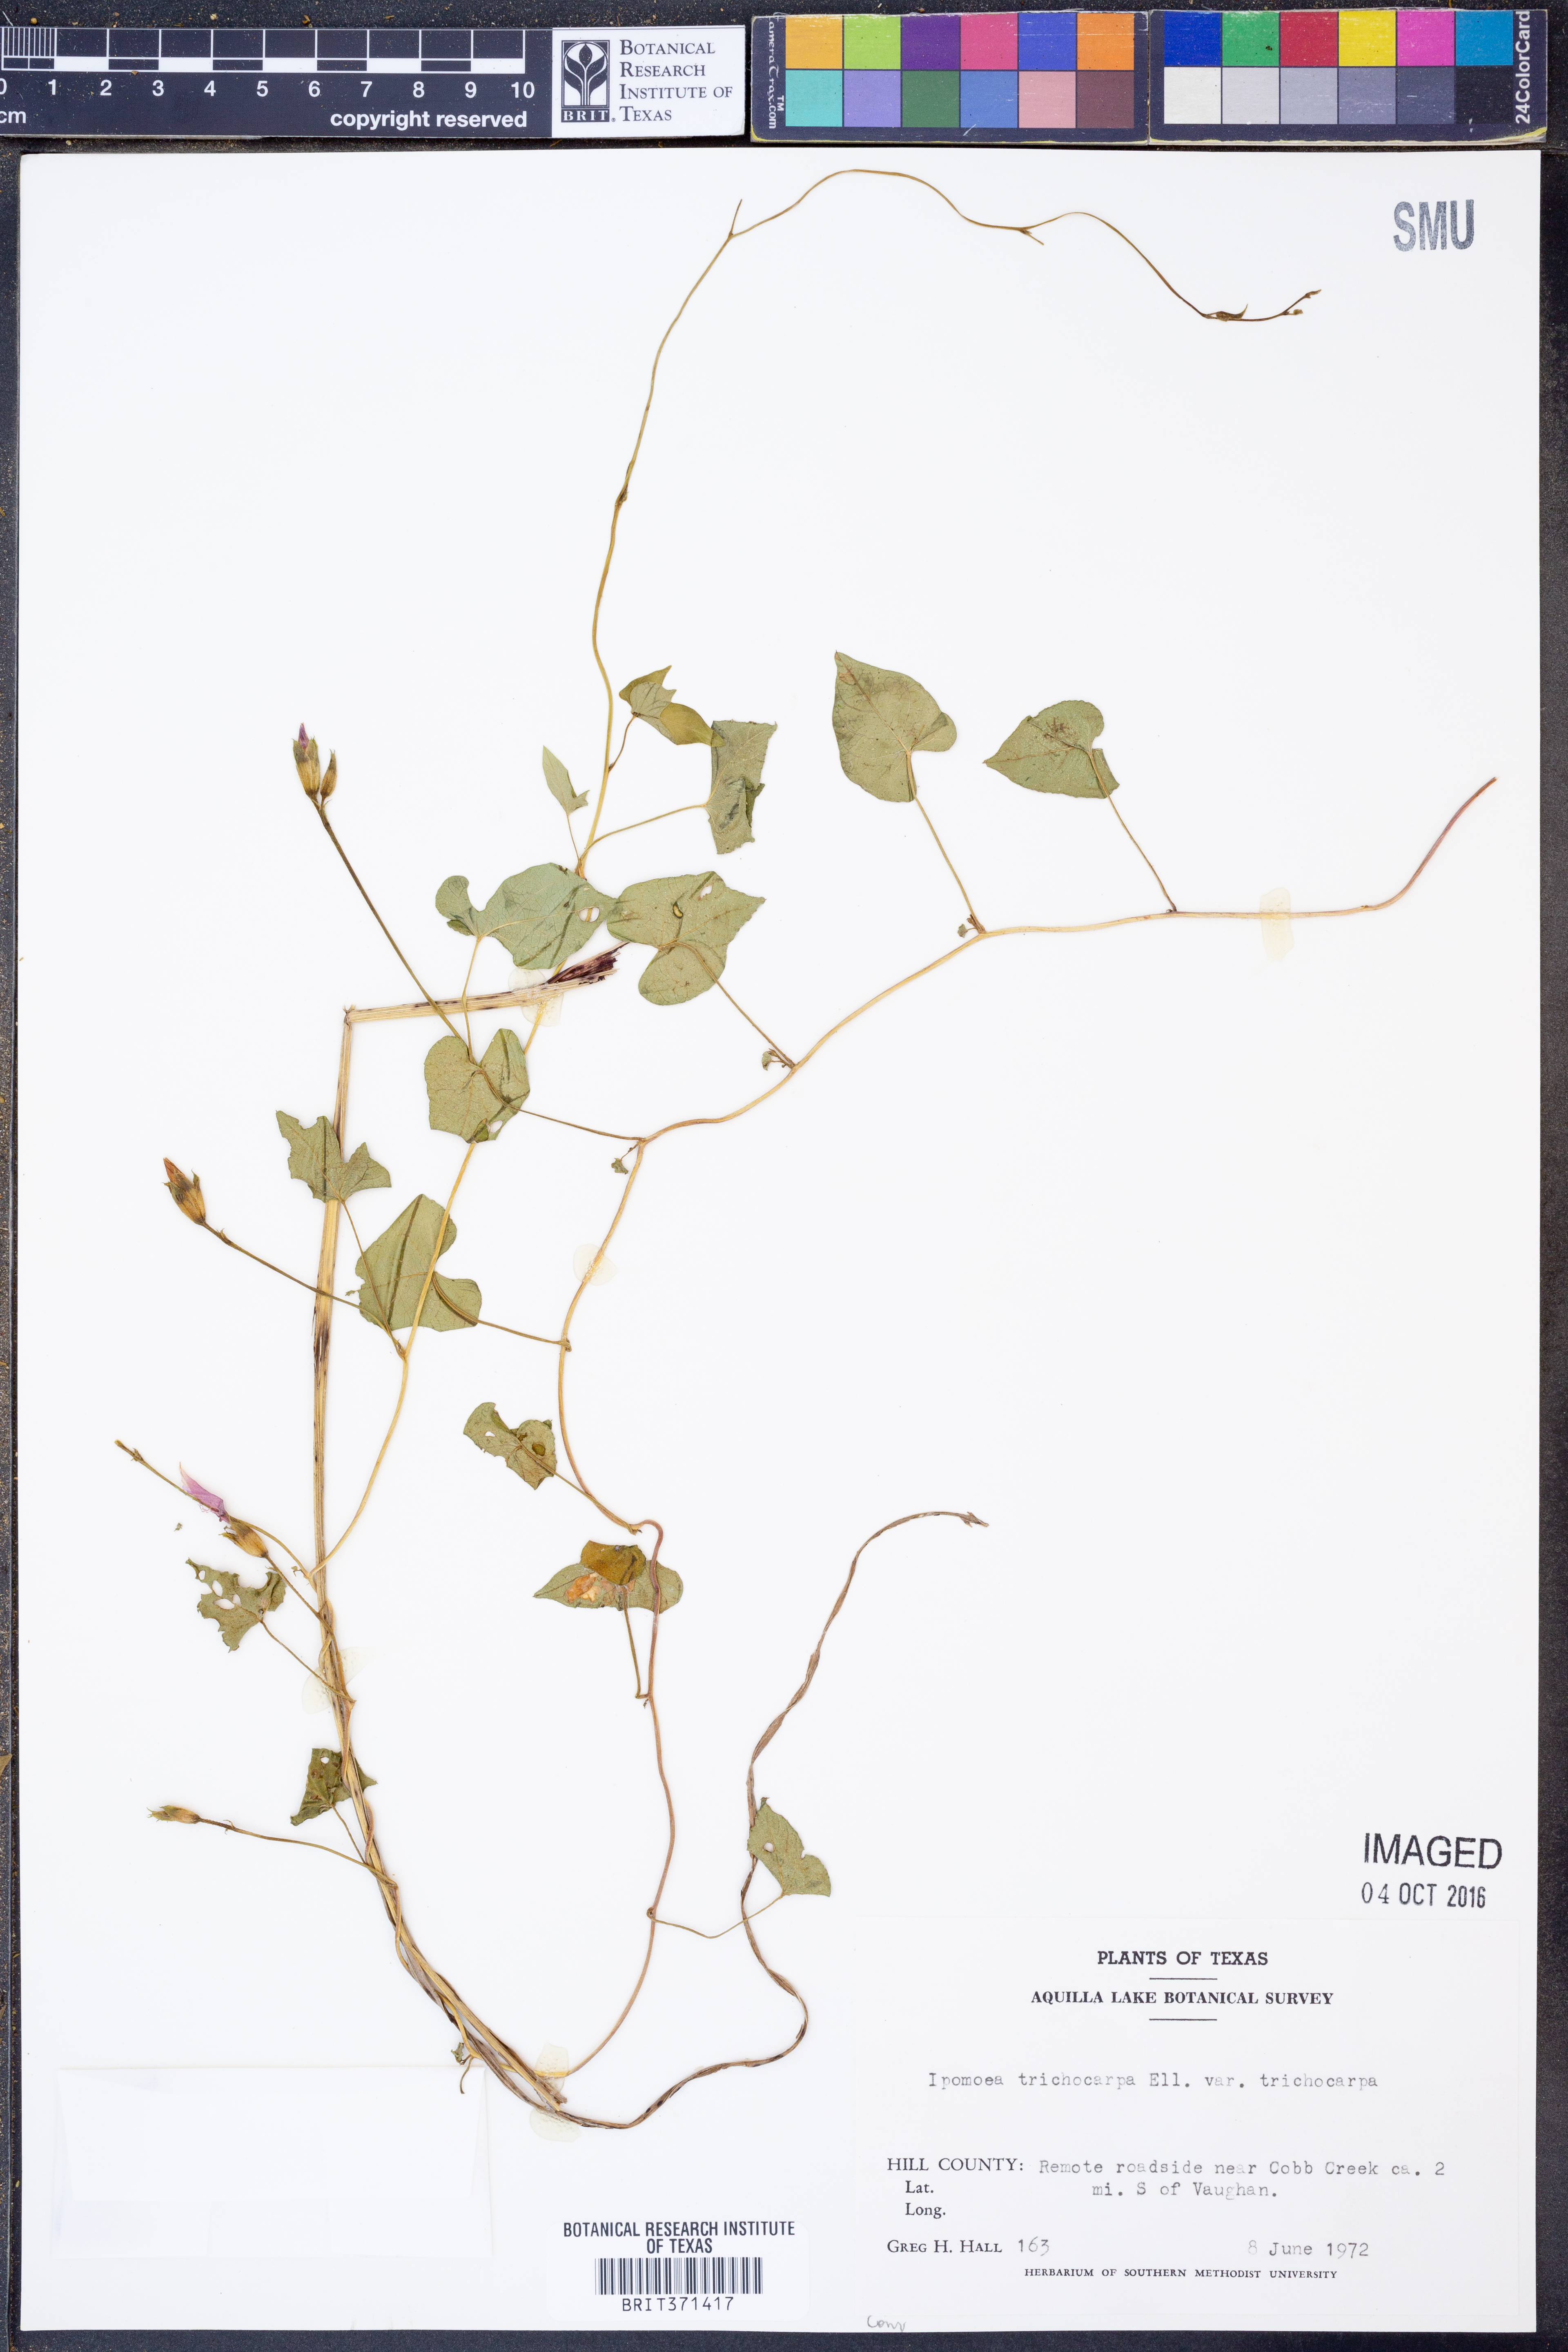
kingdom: Plantae
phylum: Tracheophyta
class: Magnoliopsida
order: Solanales
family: Convolvulaceae
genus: Ipomoea
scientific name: Ipomoea cordatotriloba
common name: Cotton morning glory
